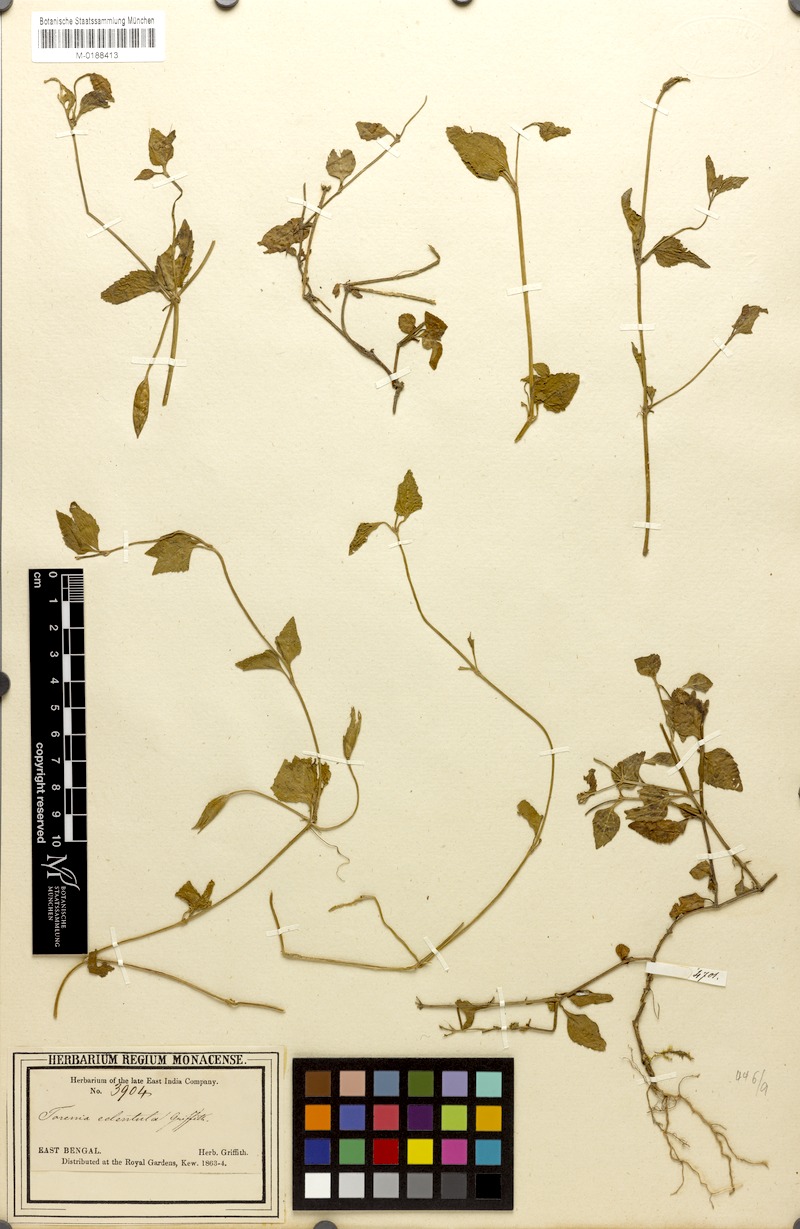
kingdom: Plantae
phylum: Tracheophyta
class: Magnoliopsida
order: Lamiales
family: Linderniaceae
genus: Vandellia
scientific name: Vandellia montana
